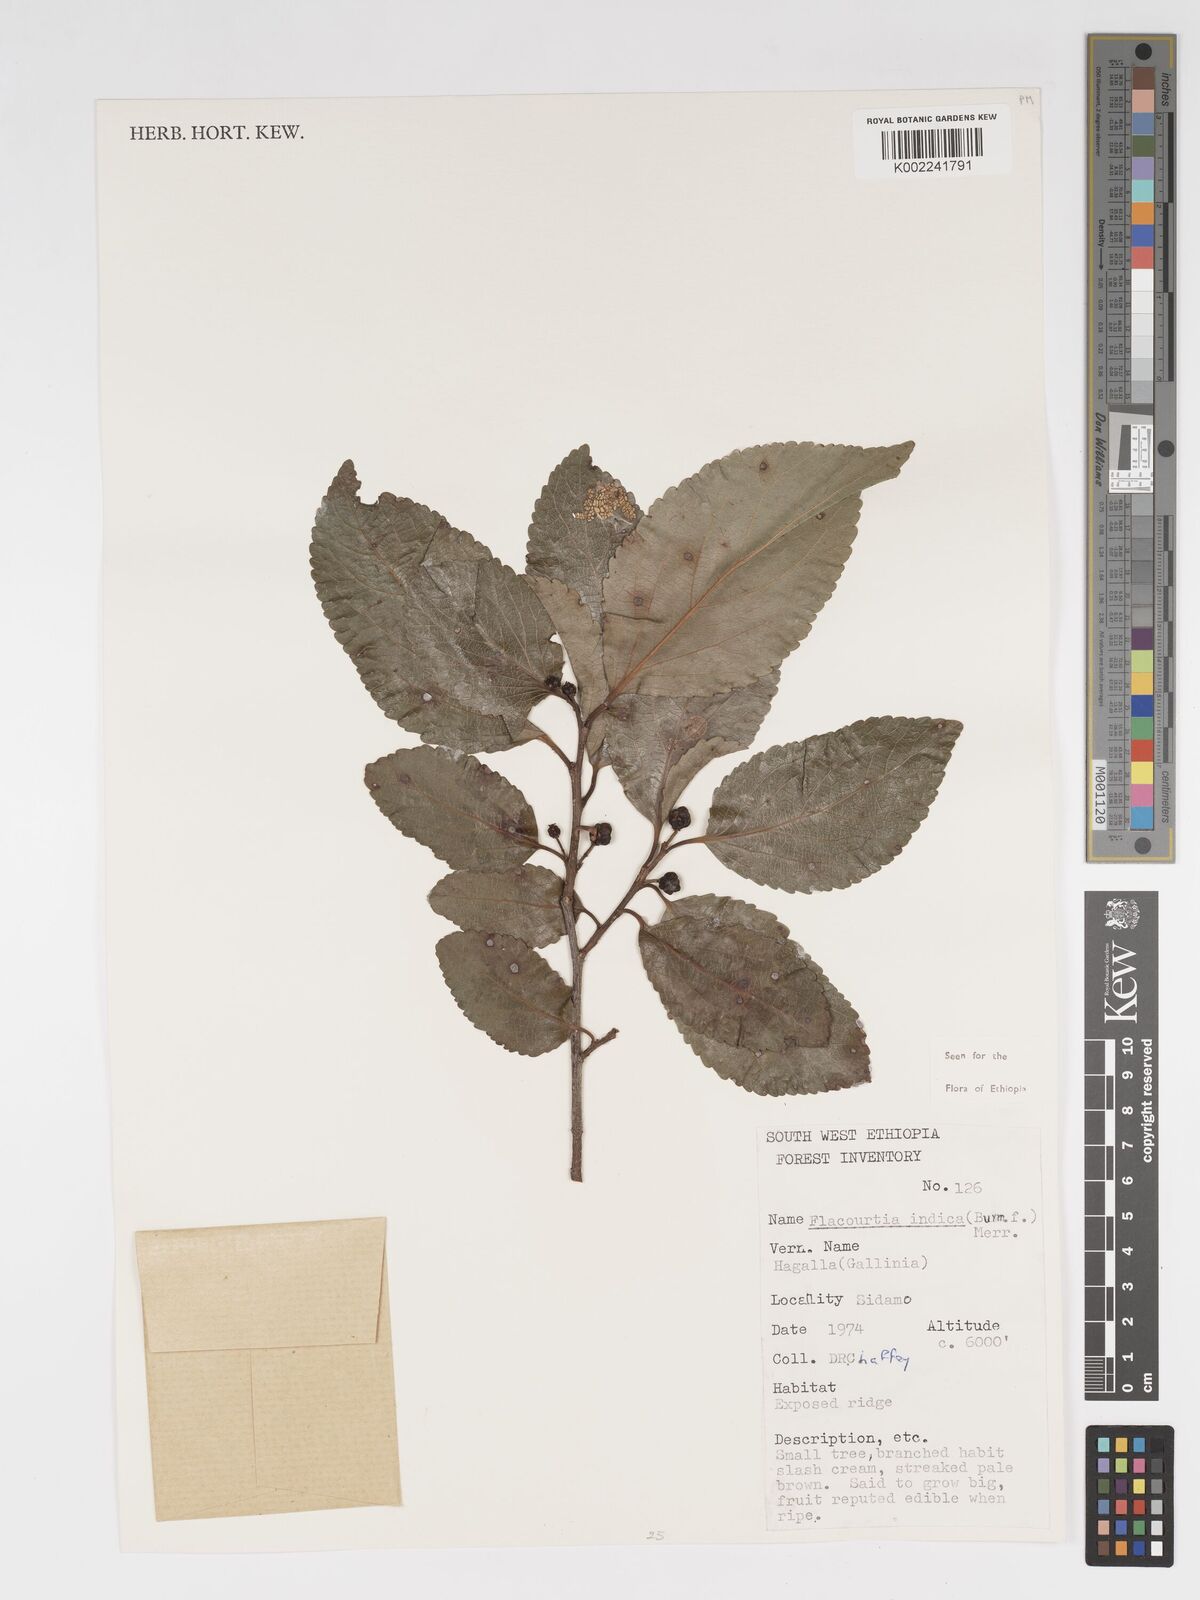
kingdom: Plantae
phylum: Tracheophyta
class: Magnoliopsida
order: Malpighiales
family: Salicaceae
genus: Flacourtia
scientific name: Flacourtia indica
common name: Governor's plum
